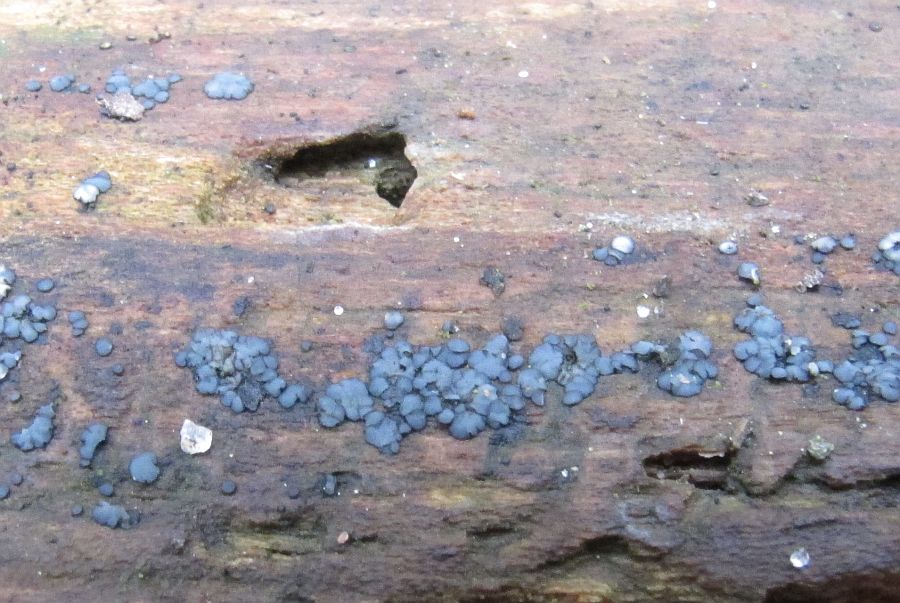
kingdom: Fungi
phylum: Ascomycota
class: Leotiomycetes
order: Helotiales
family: Mollisiaceae
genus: Mollisia
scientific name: Mollisia cinerea
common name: almindelig gråskive
